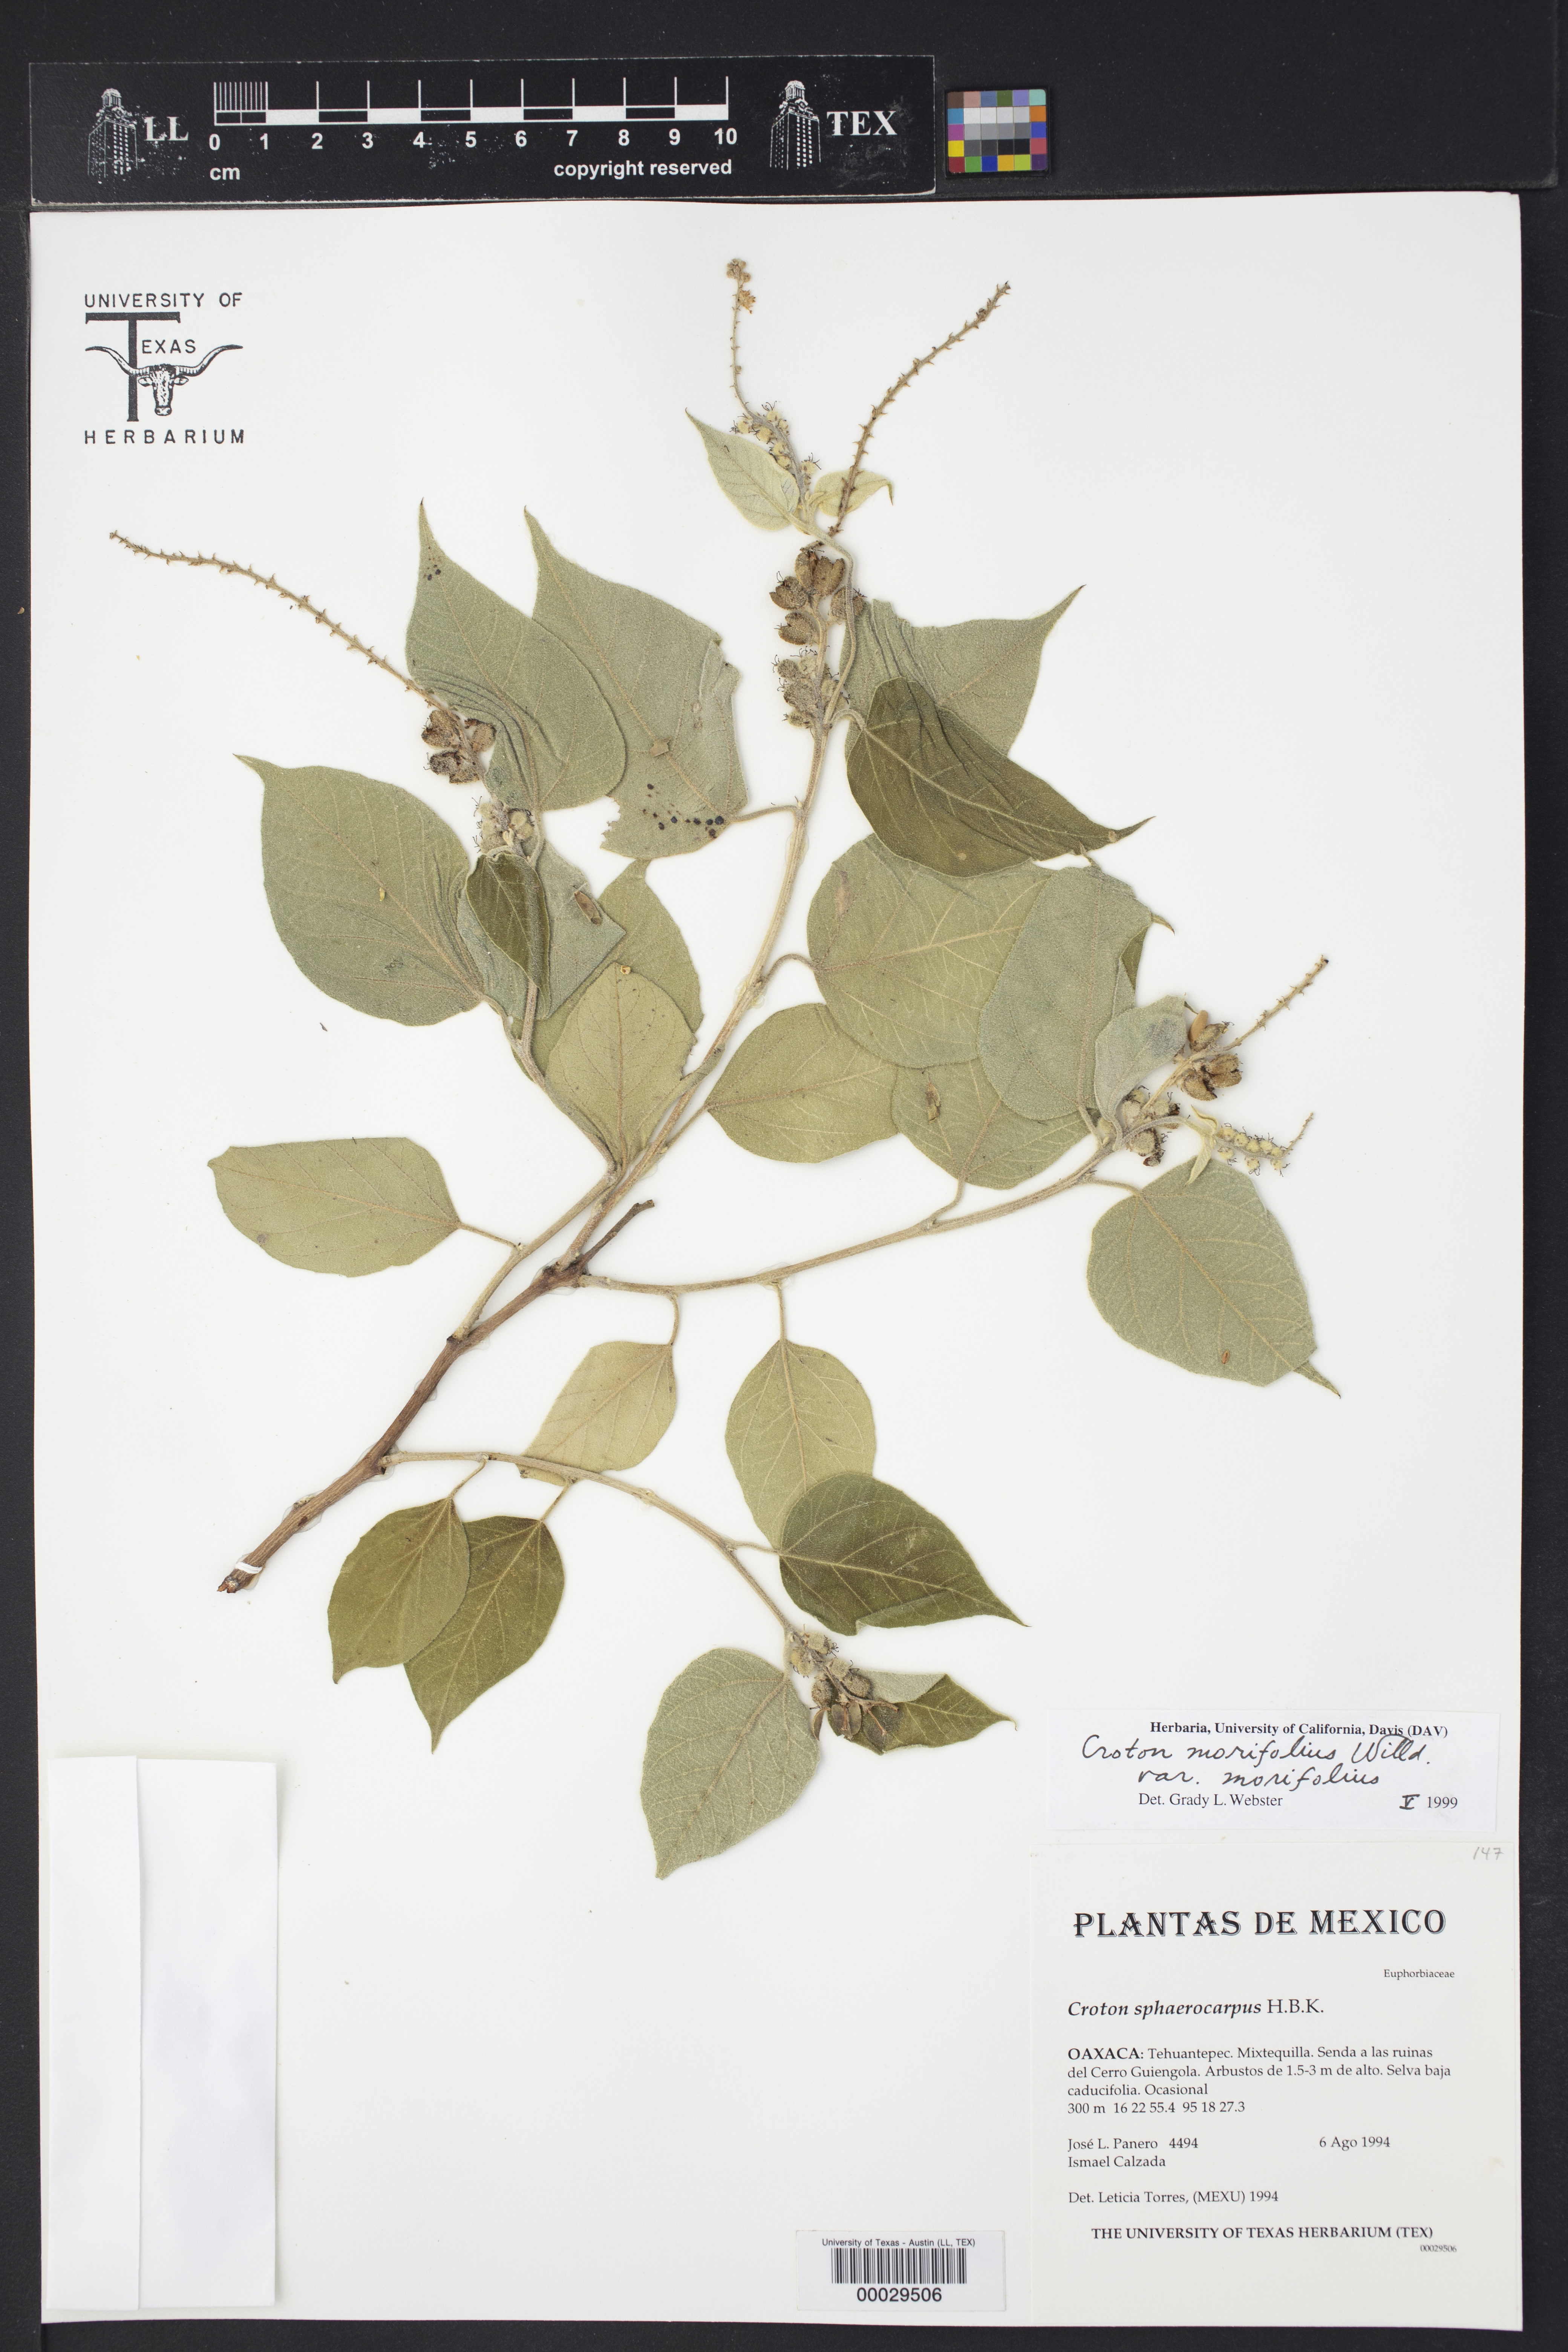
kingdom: Plantae
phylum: Tracheophyta
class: Magnoliopsida
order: Malpighiales
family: Euphorbiaceae
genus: Croton
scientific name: Croton morifolius
